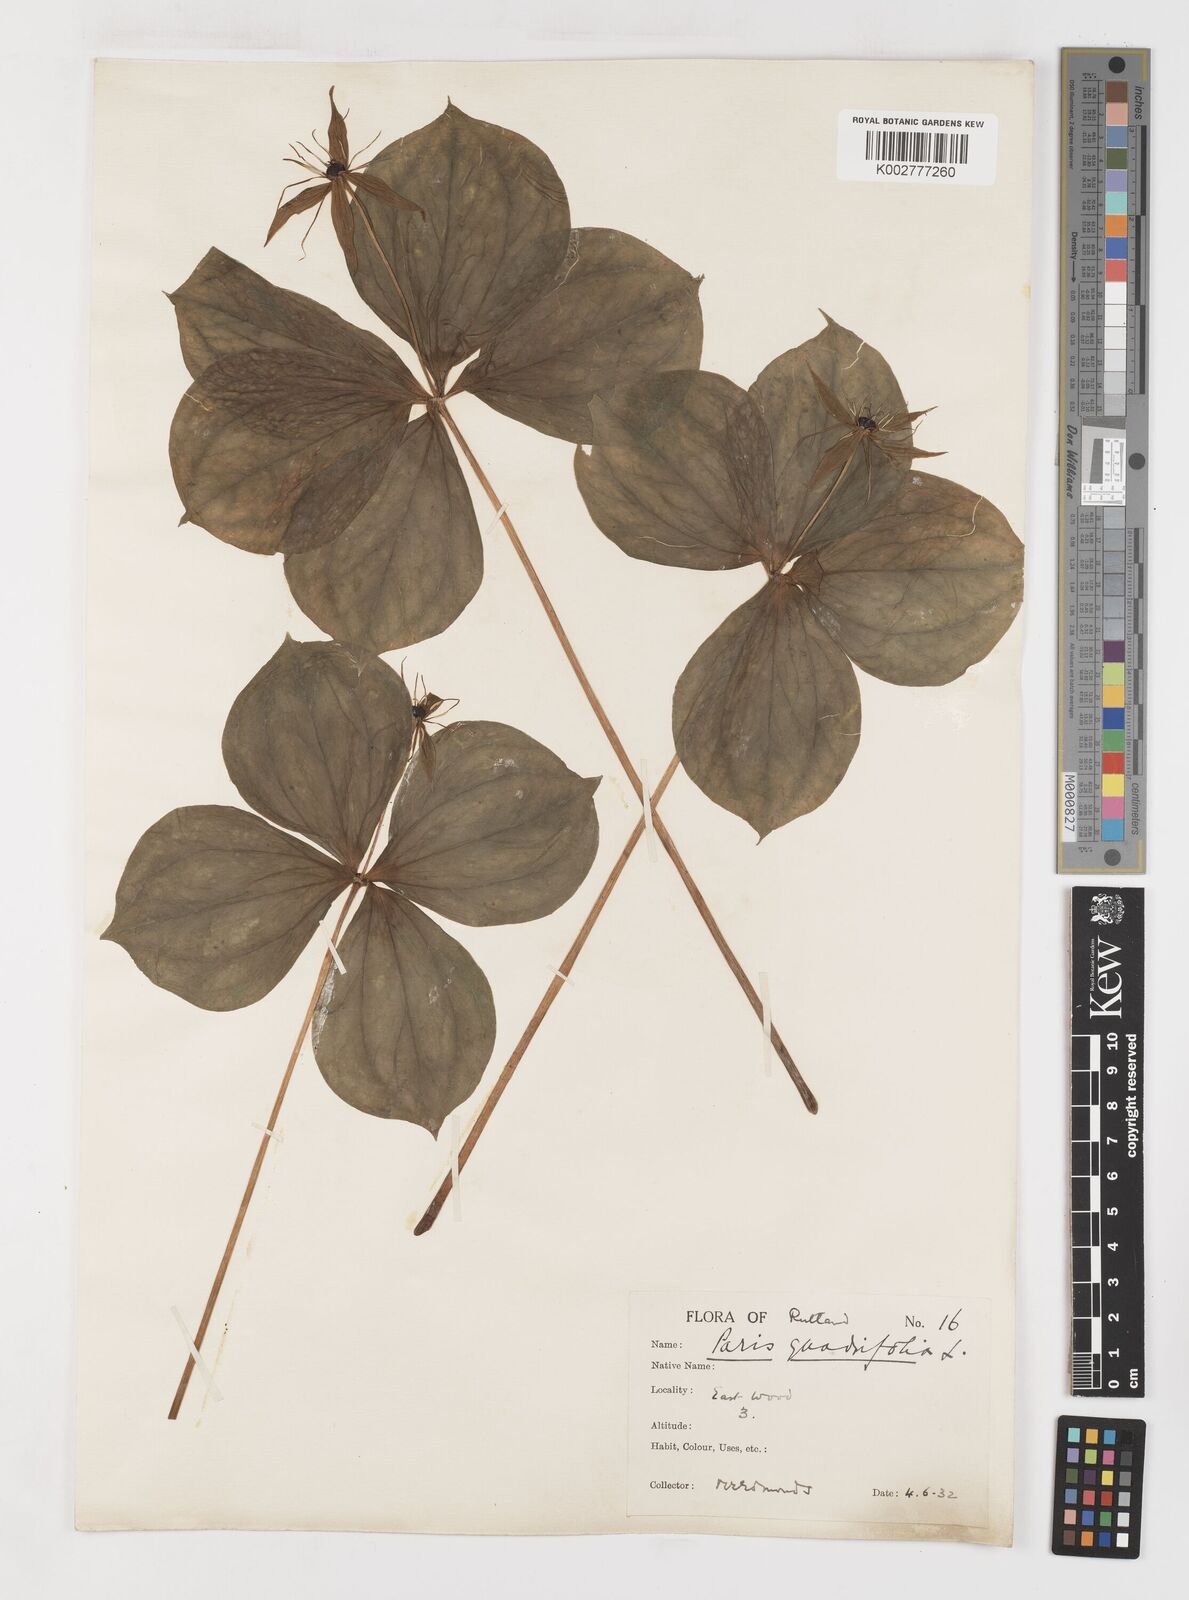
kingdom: Plantae
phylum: Tracheophyta
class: Liliopsida
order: Liliales
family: Melanthiaceae
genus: Paris
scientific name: Paris quadrifolia
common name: Herb-paris
